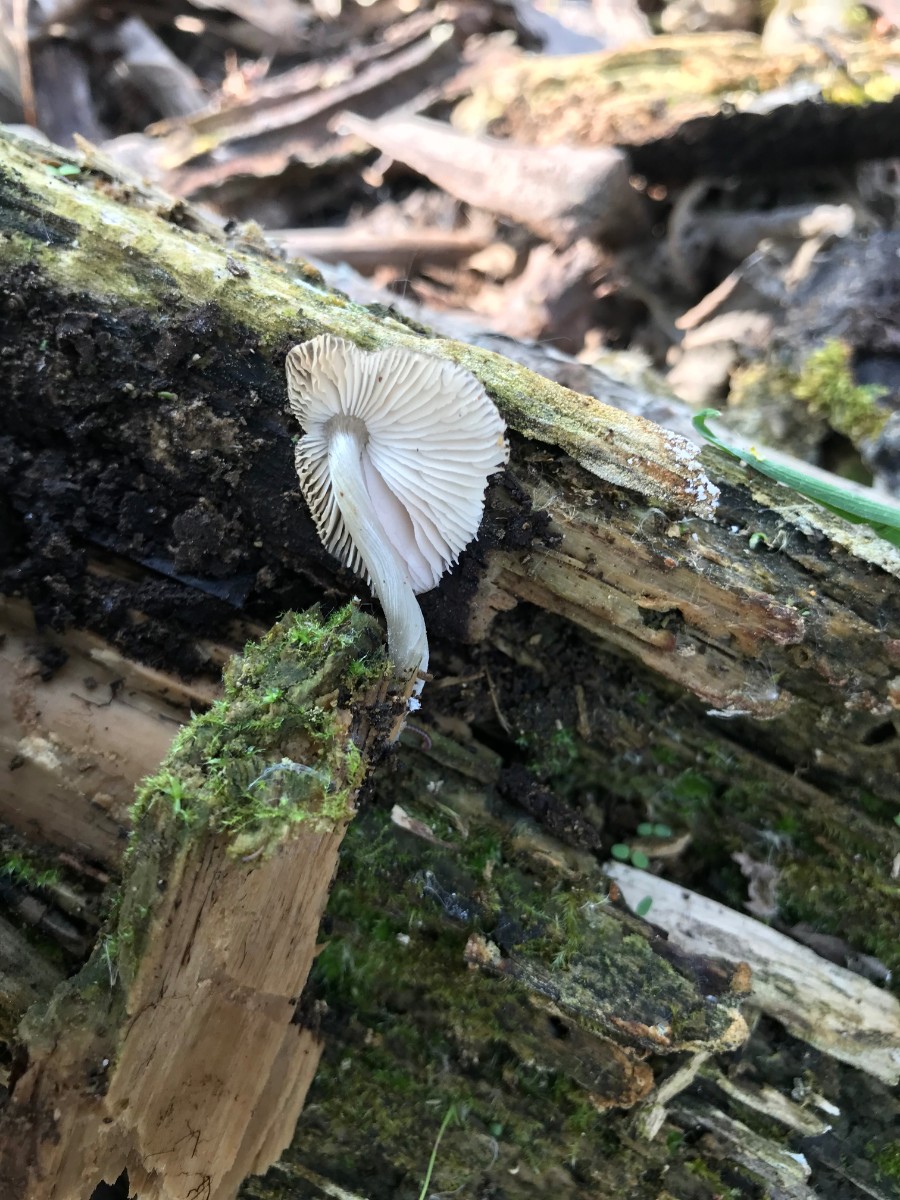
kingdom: Fungi
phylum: Basidiomycota
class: Agaricomycetes
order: Agaricales
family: Pluteaceae
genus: Pluteus
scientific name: Pluteus phlebophorus
